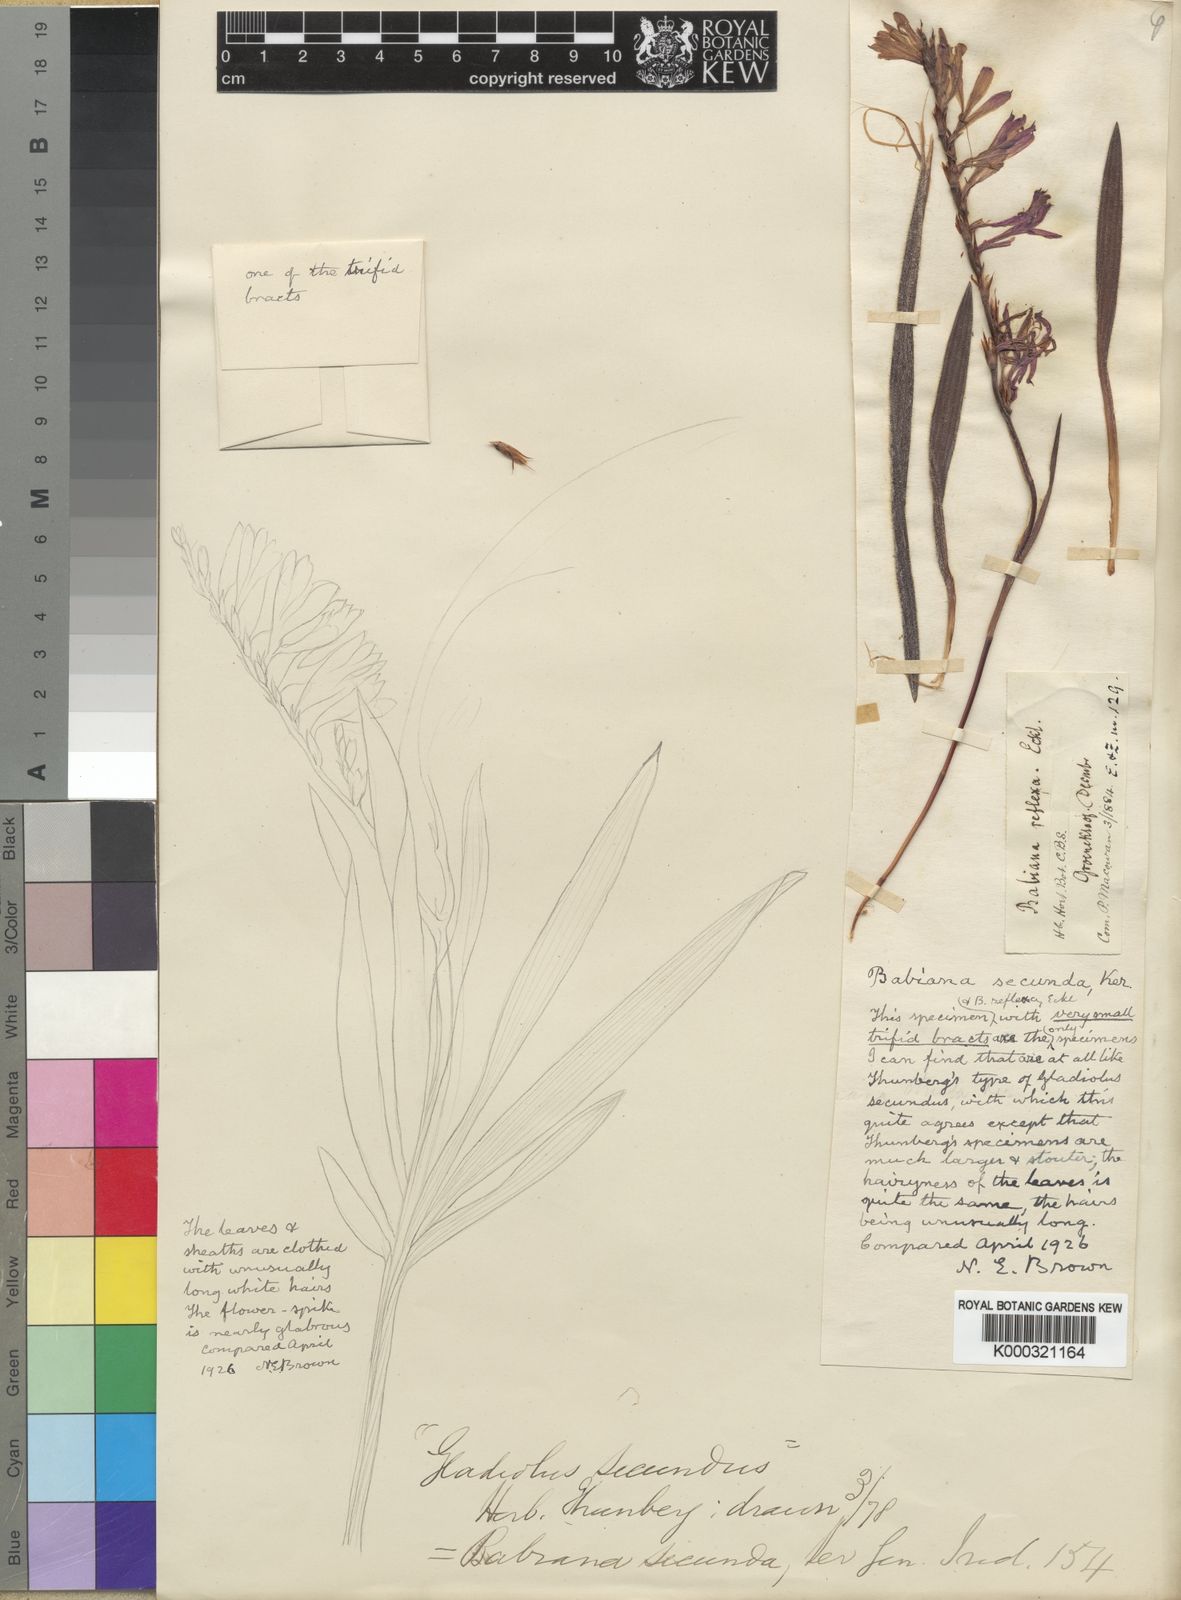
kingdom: Plantae
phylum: Tracheophyta
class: Liliopsida
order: Asparagales
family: Iridaceae
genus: Babiana
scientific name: Babiana secunda
